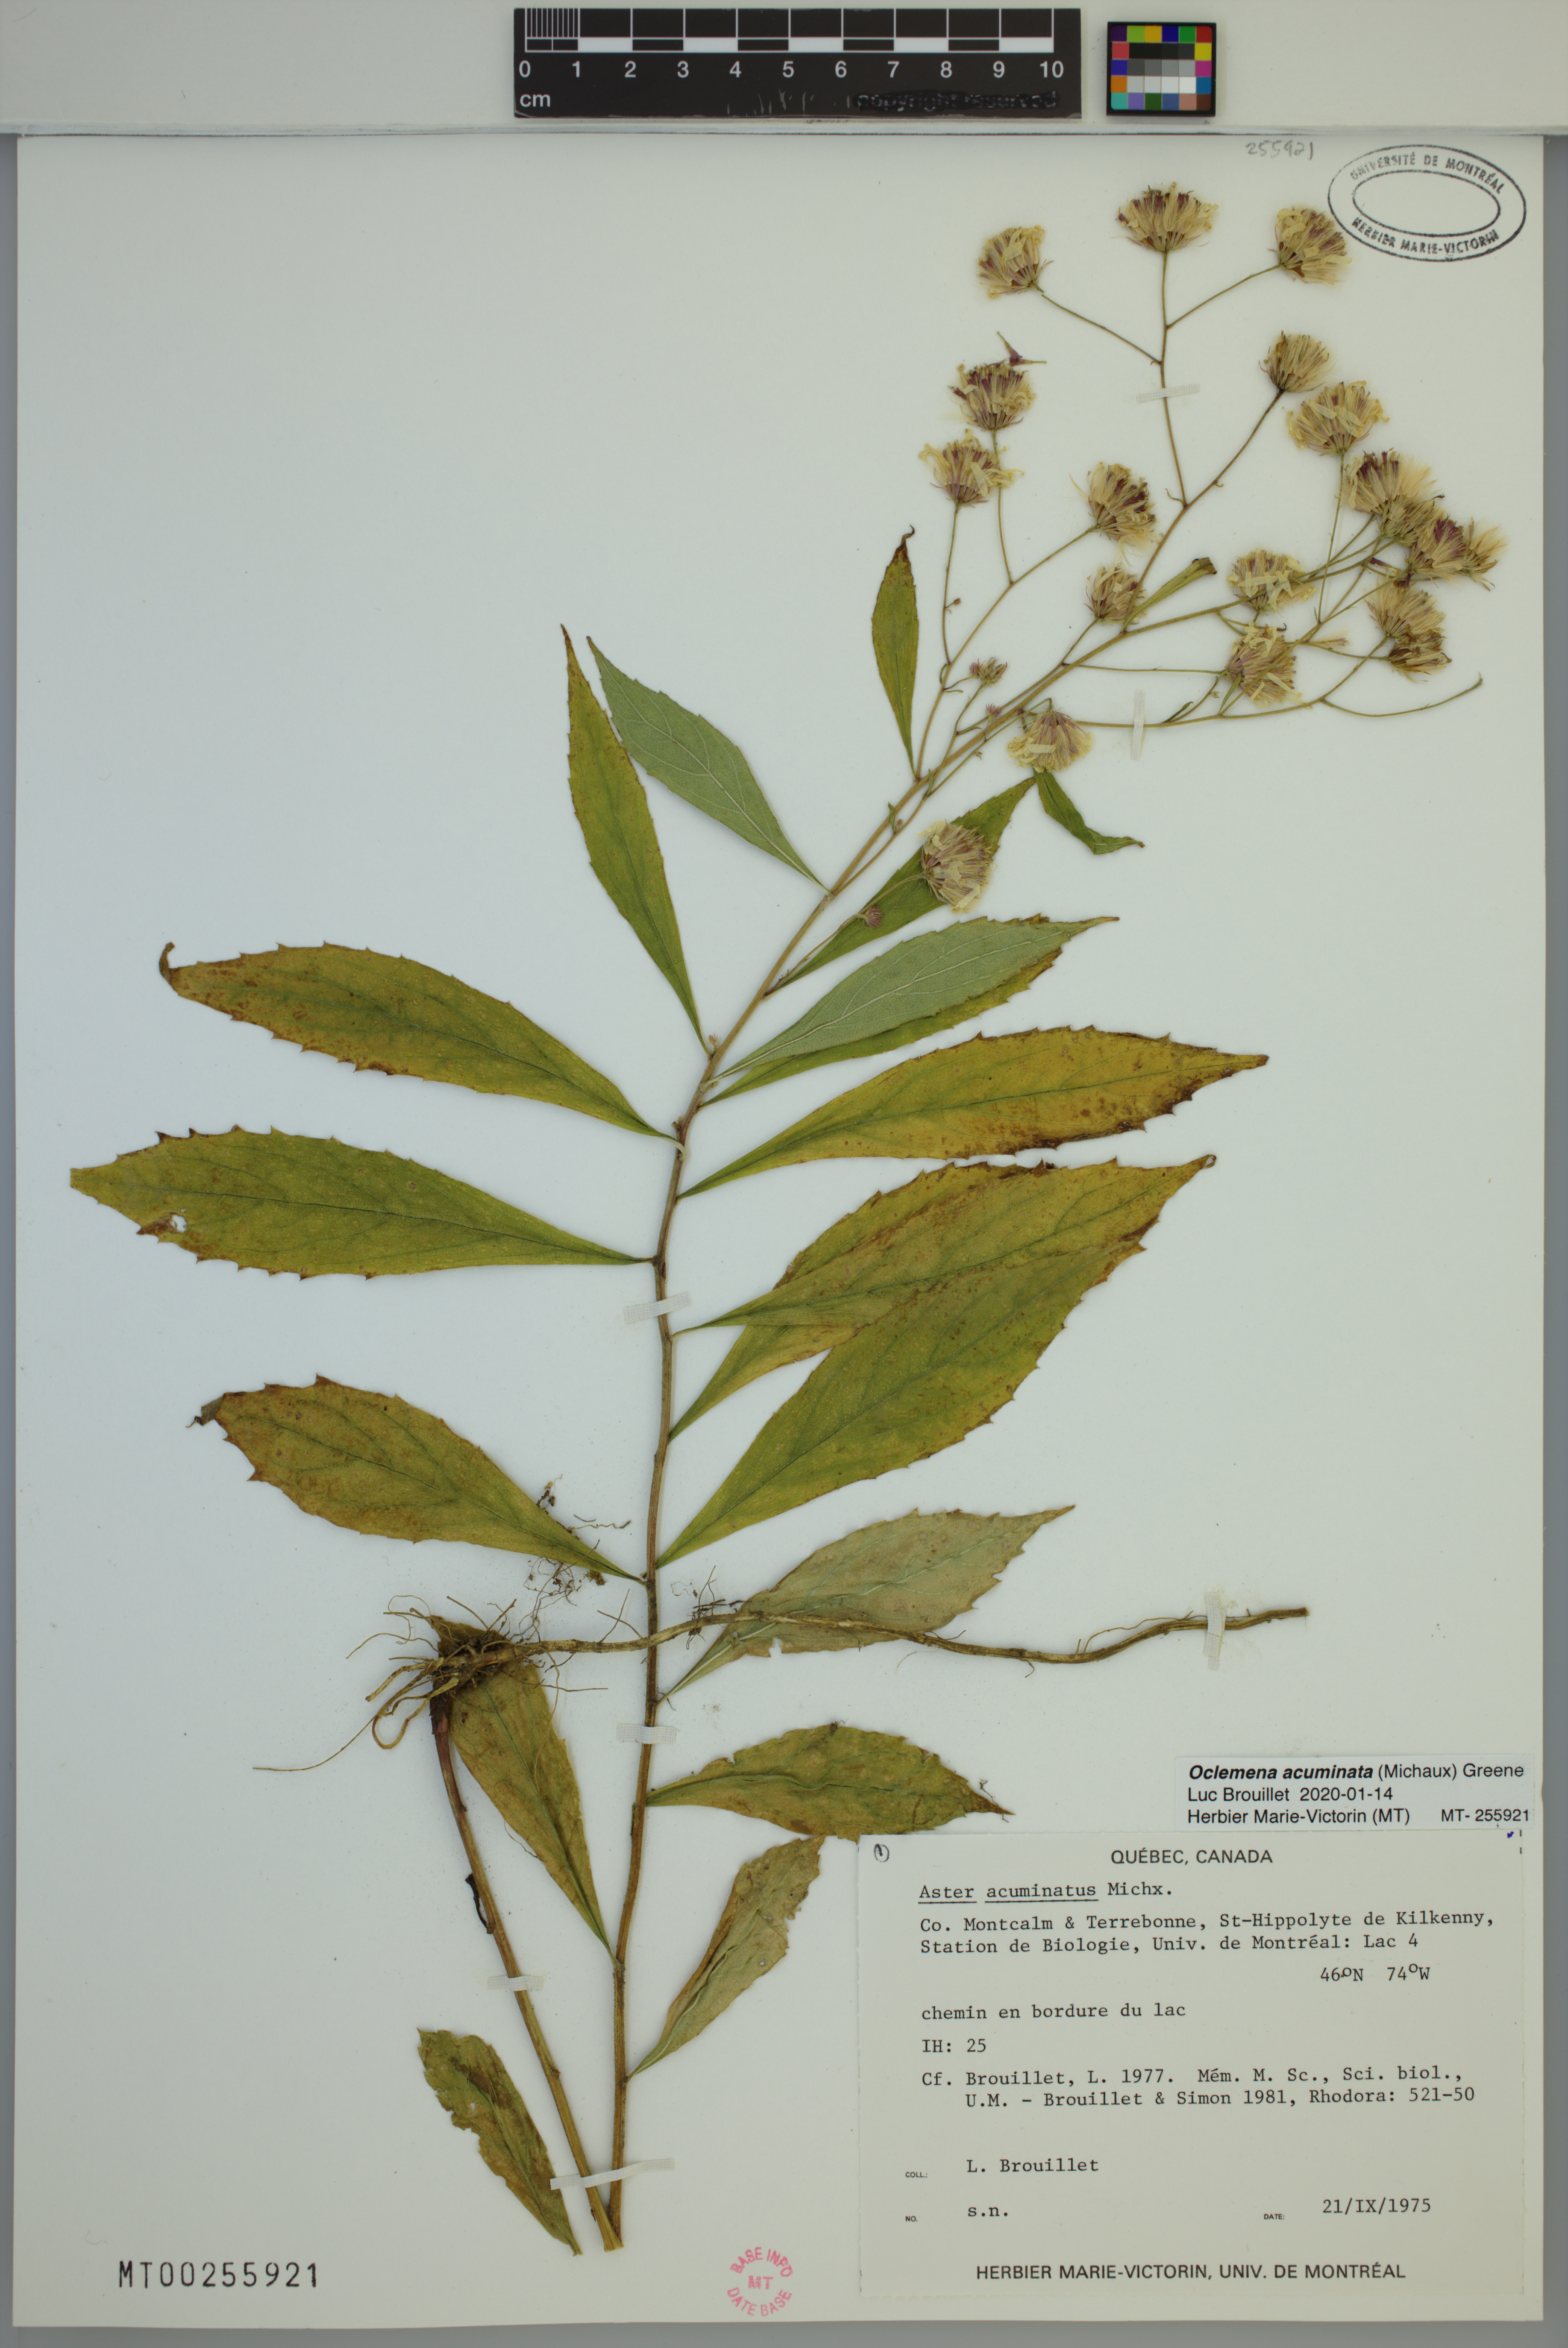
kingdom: Plantae
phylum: Tracheophyta
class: Magnoliopsida
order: Asterales
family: Asteraceae
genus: Oclemena
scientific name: Oclemena acuminata
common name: Mountain aster
